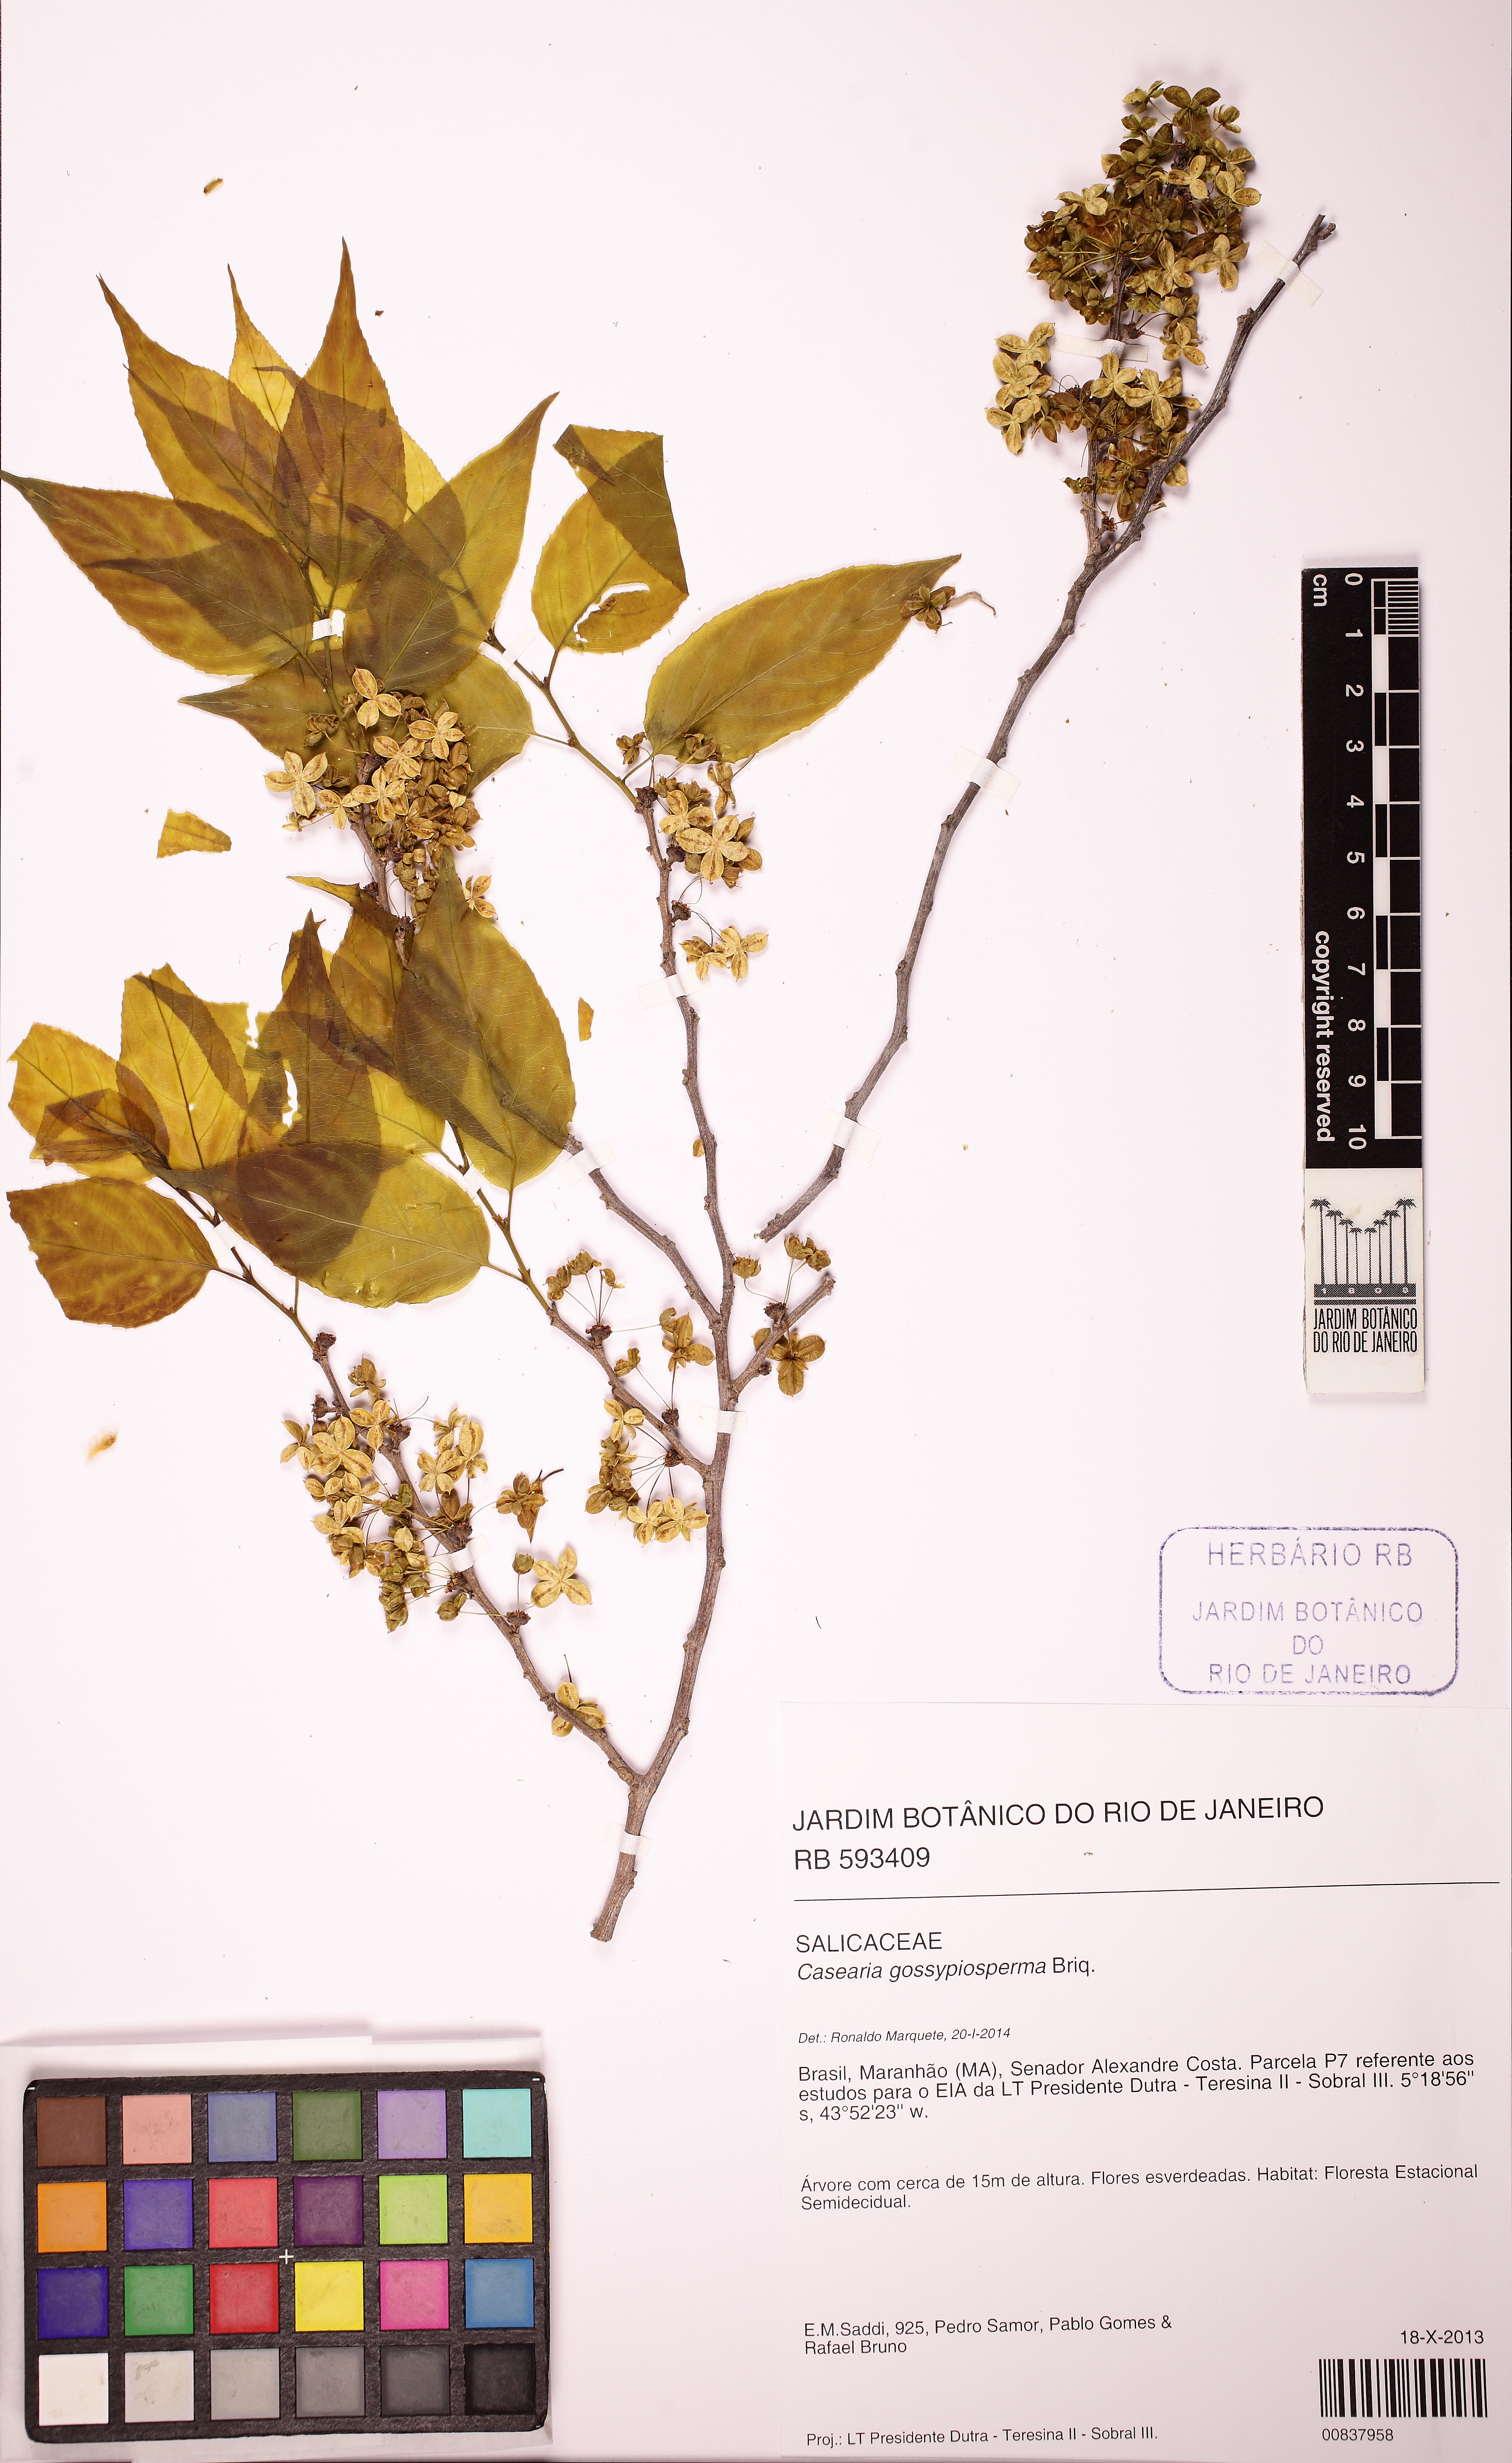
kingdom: Plantae
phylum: Tracheophyta
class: Magnoliopsida
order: Malpighiales
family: Salicaceae
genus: Casearia
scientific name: Casearia gossypiosperma
